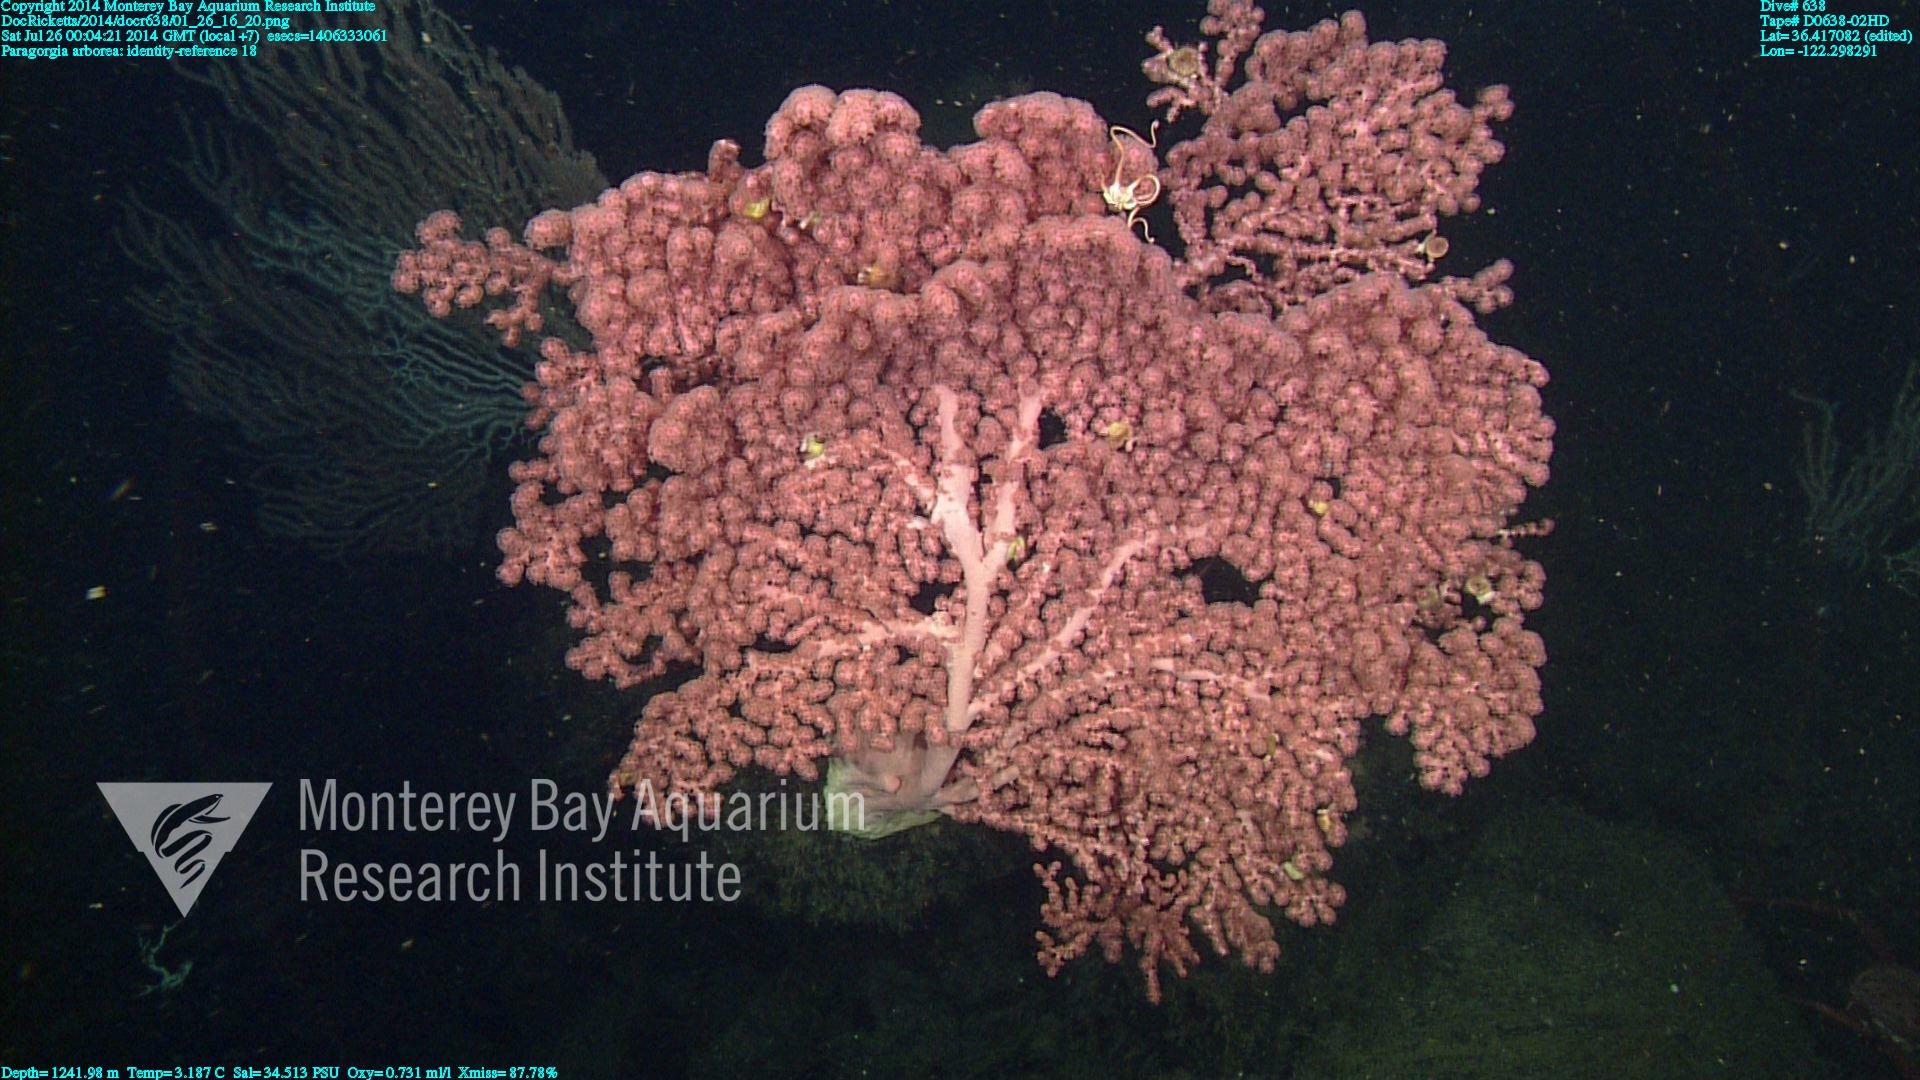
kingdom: Animalia
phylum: Cnidaria
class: Anthozoa
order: Scleralcyonacea
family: Coralliidae
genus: Paragorgia
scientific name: Paragorgia arborea
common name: Bubble gum coral
